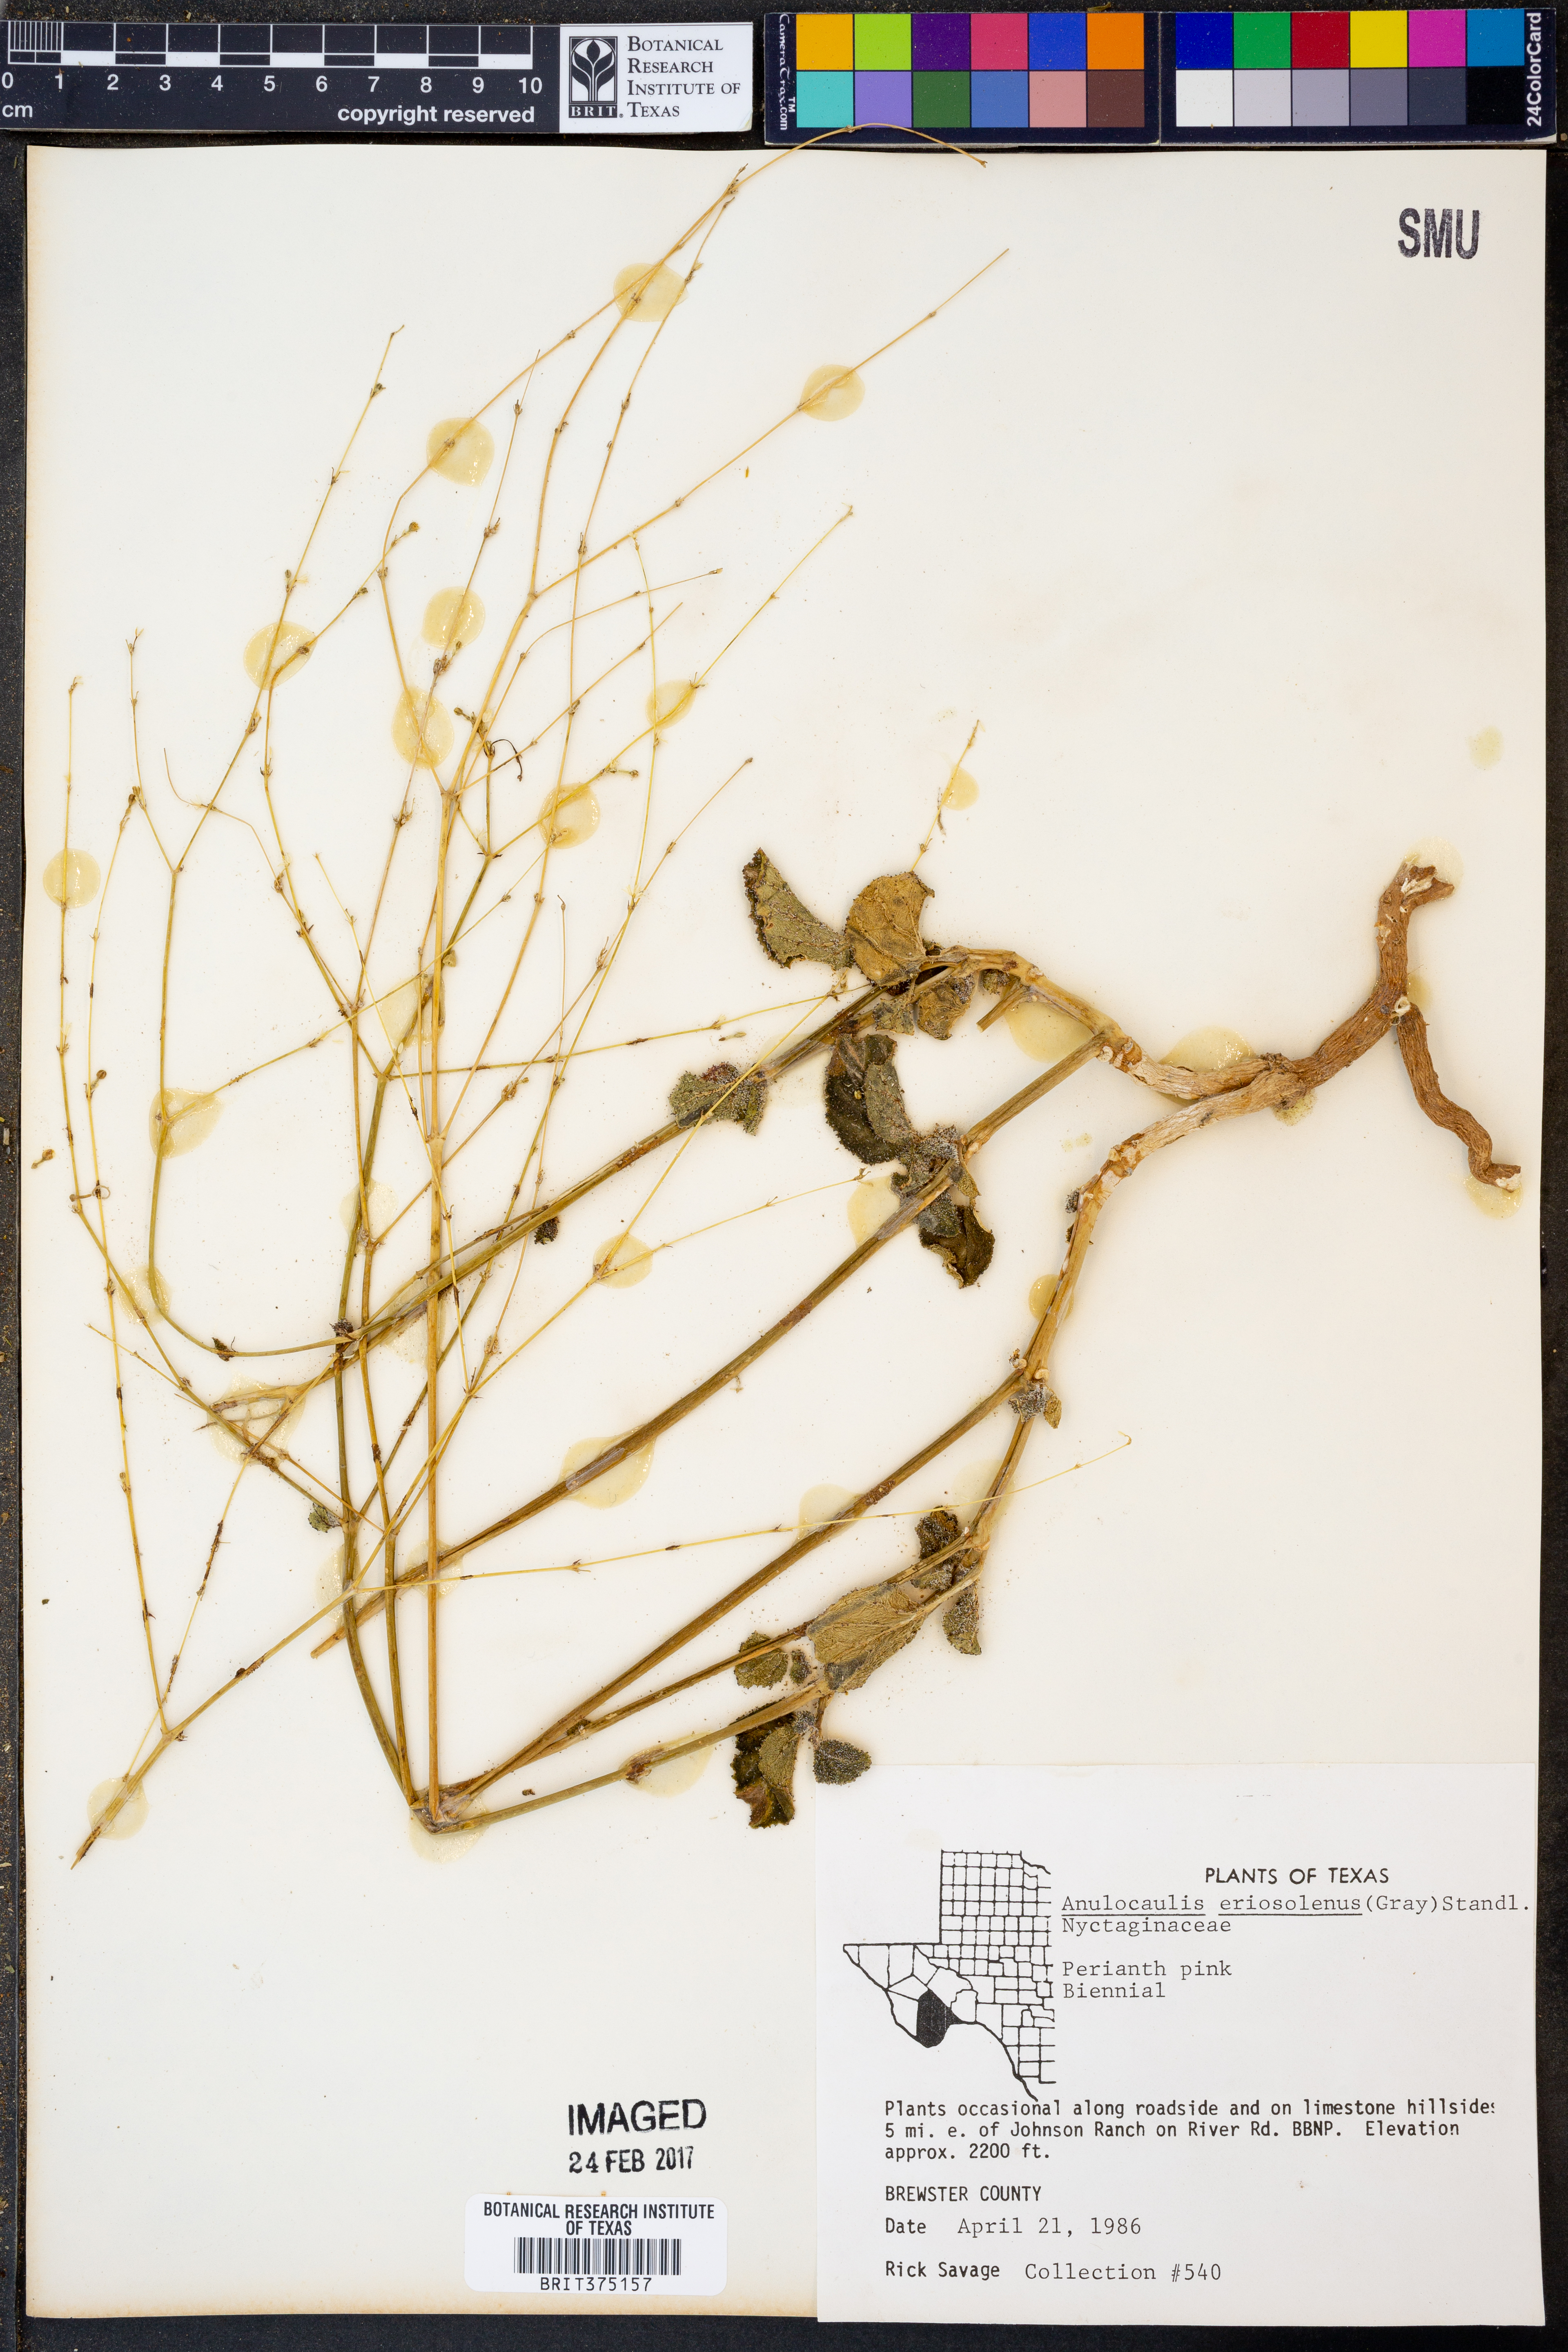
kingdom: Plantae
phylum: Tracheophyta
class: Magnoliopsida
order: Caryophyllales
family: Nyctaginaceae
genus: Anulocaulis
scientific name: Anulocaulis eriosolenus
